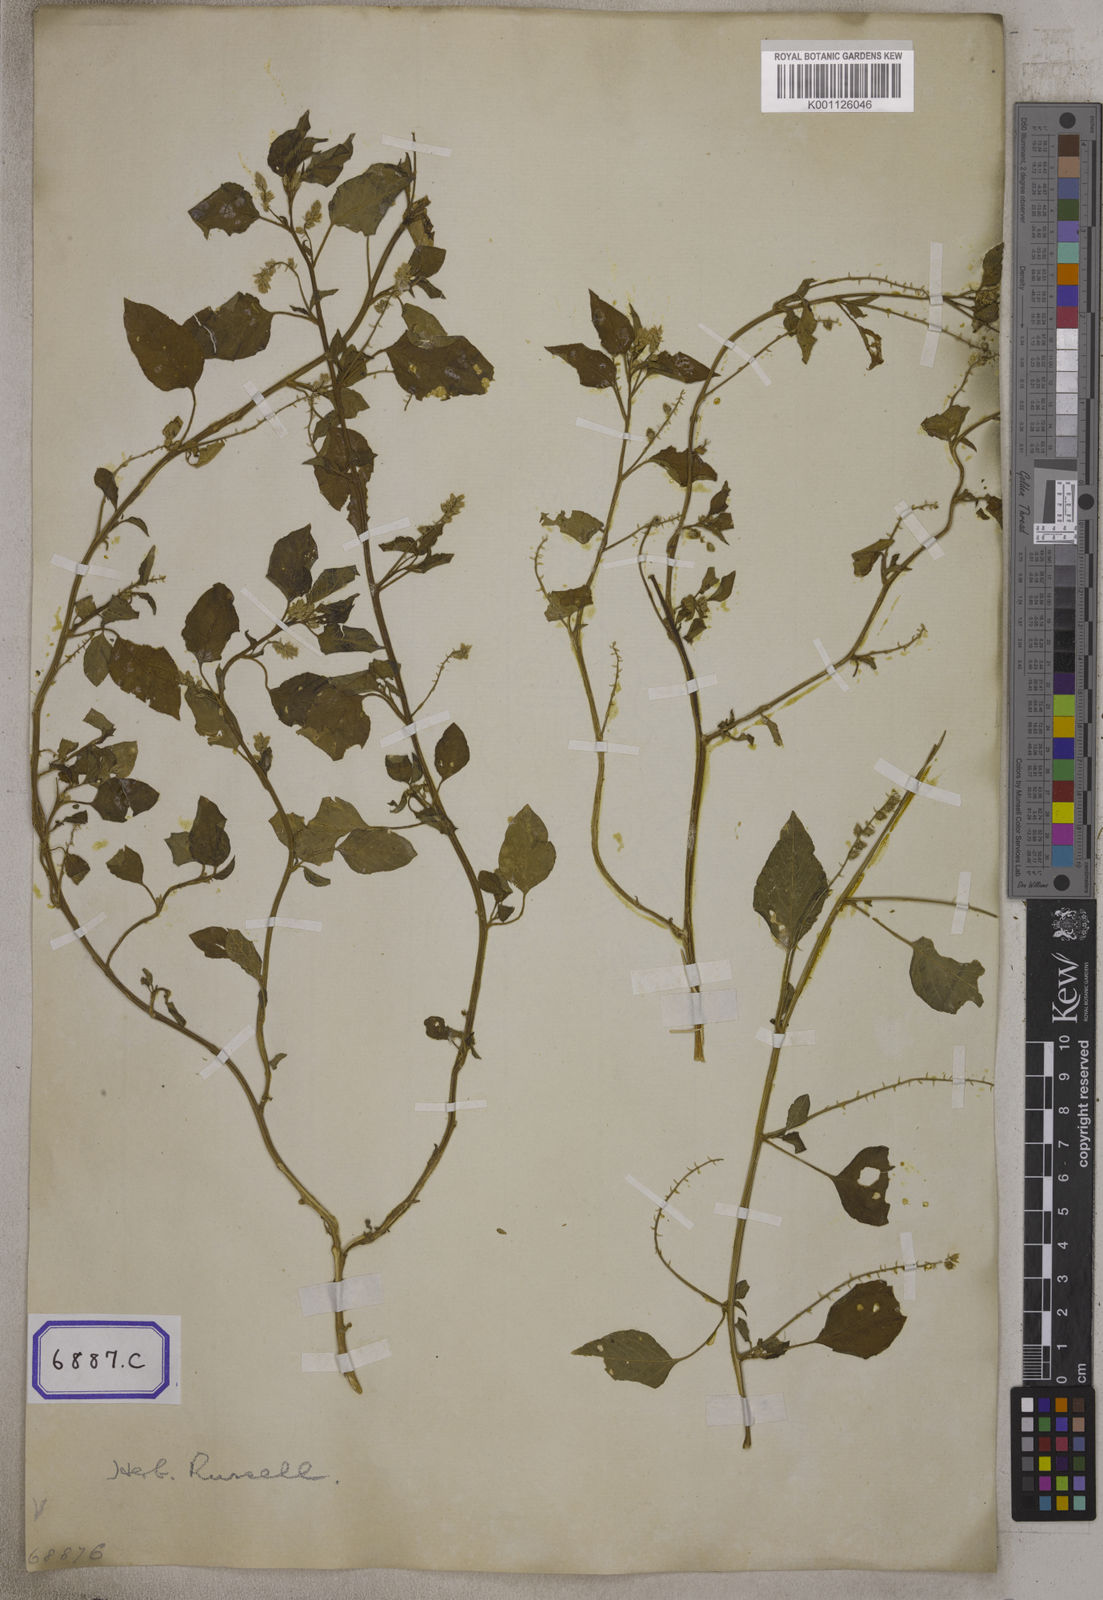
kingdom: Plantae
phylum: Tracheophyta
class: Magnoliopsida
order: Caryophyllales
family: Amaranthaceae
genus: Digera
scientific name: Digera muricata
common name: False amaranth
